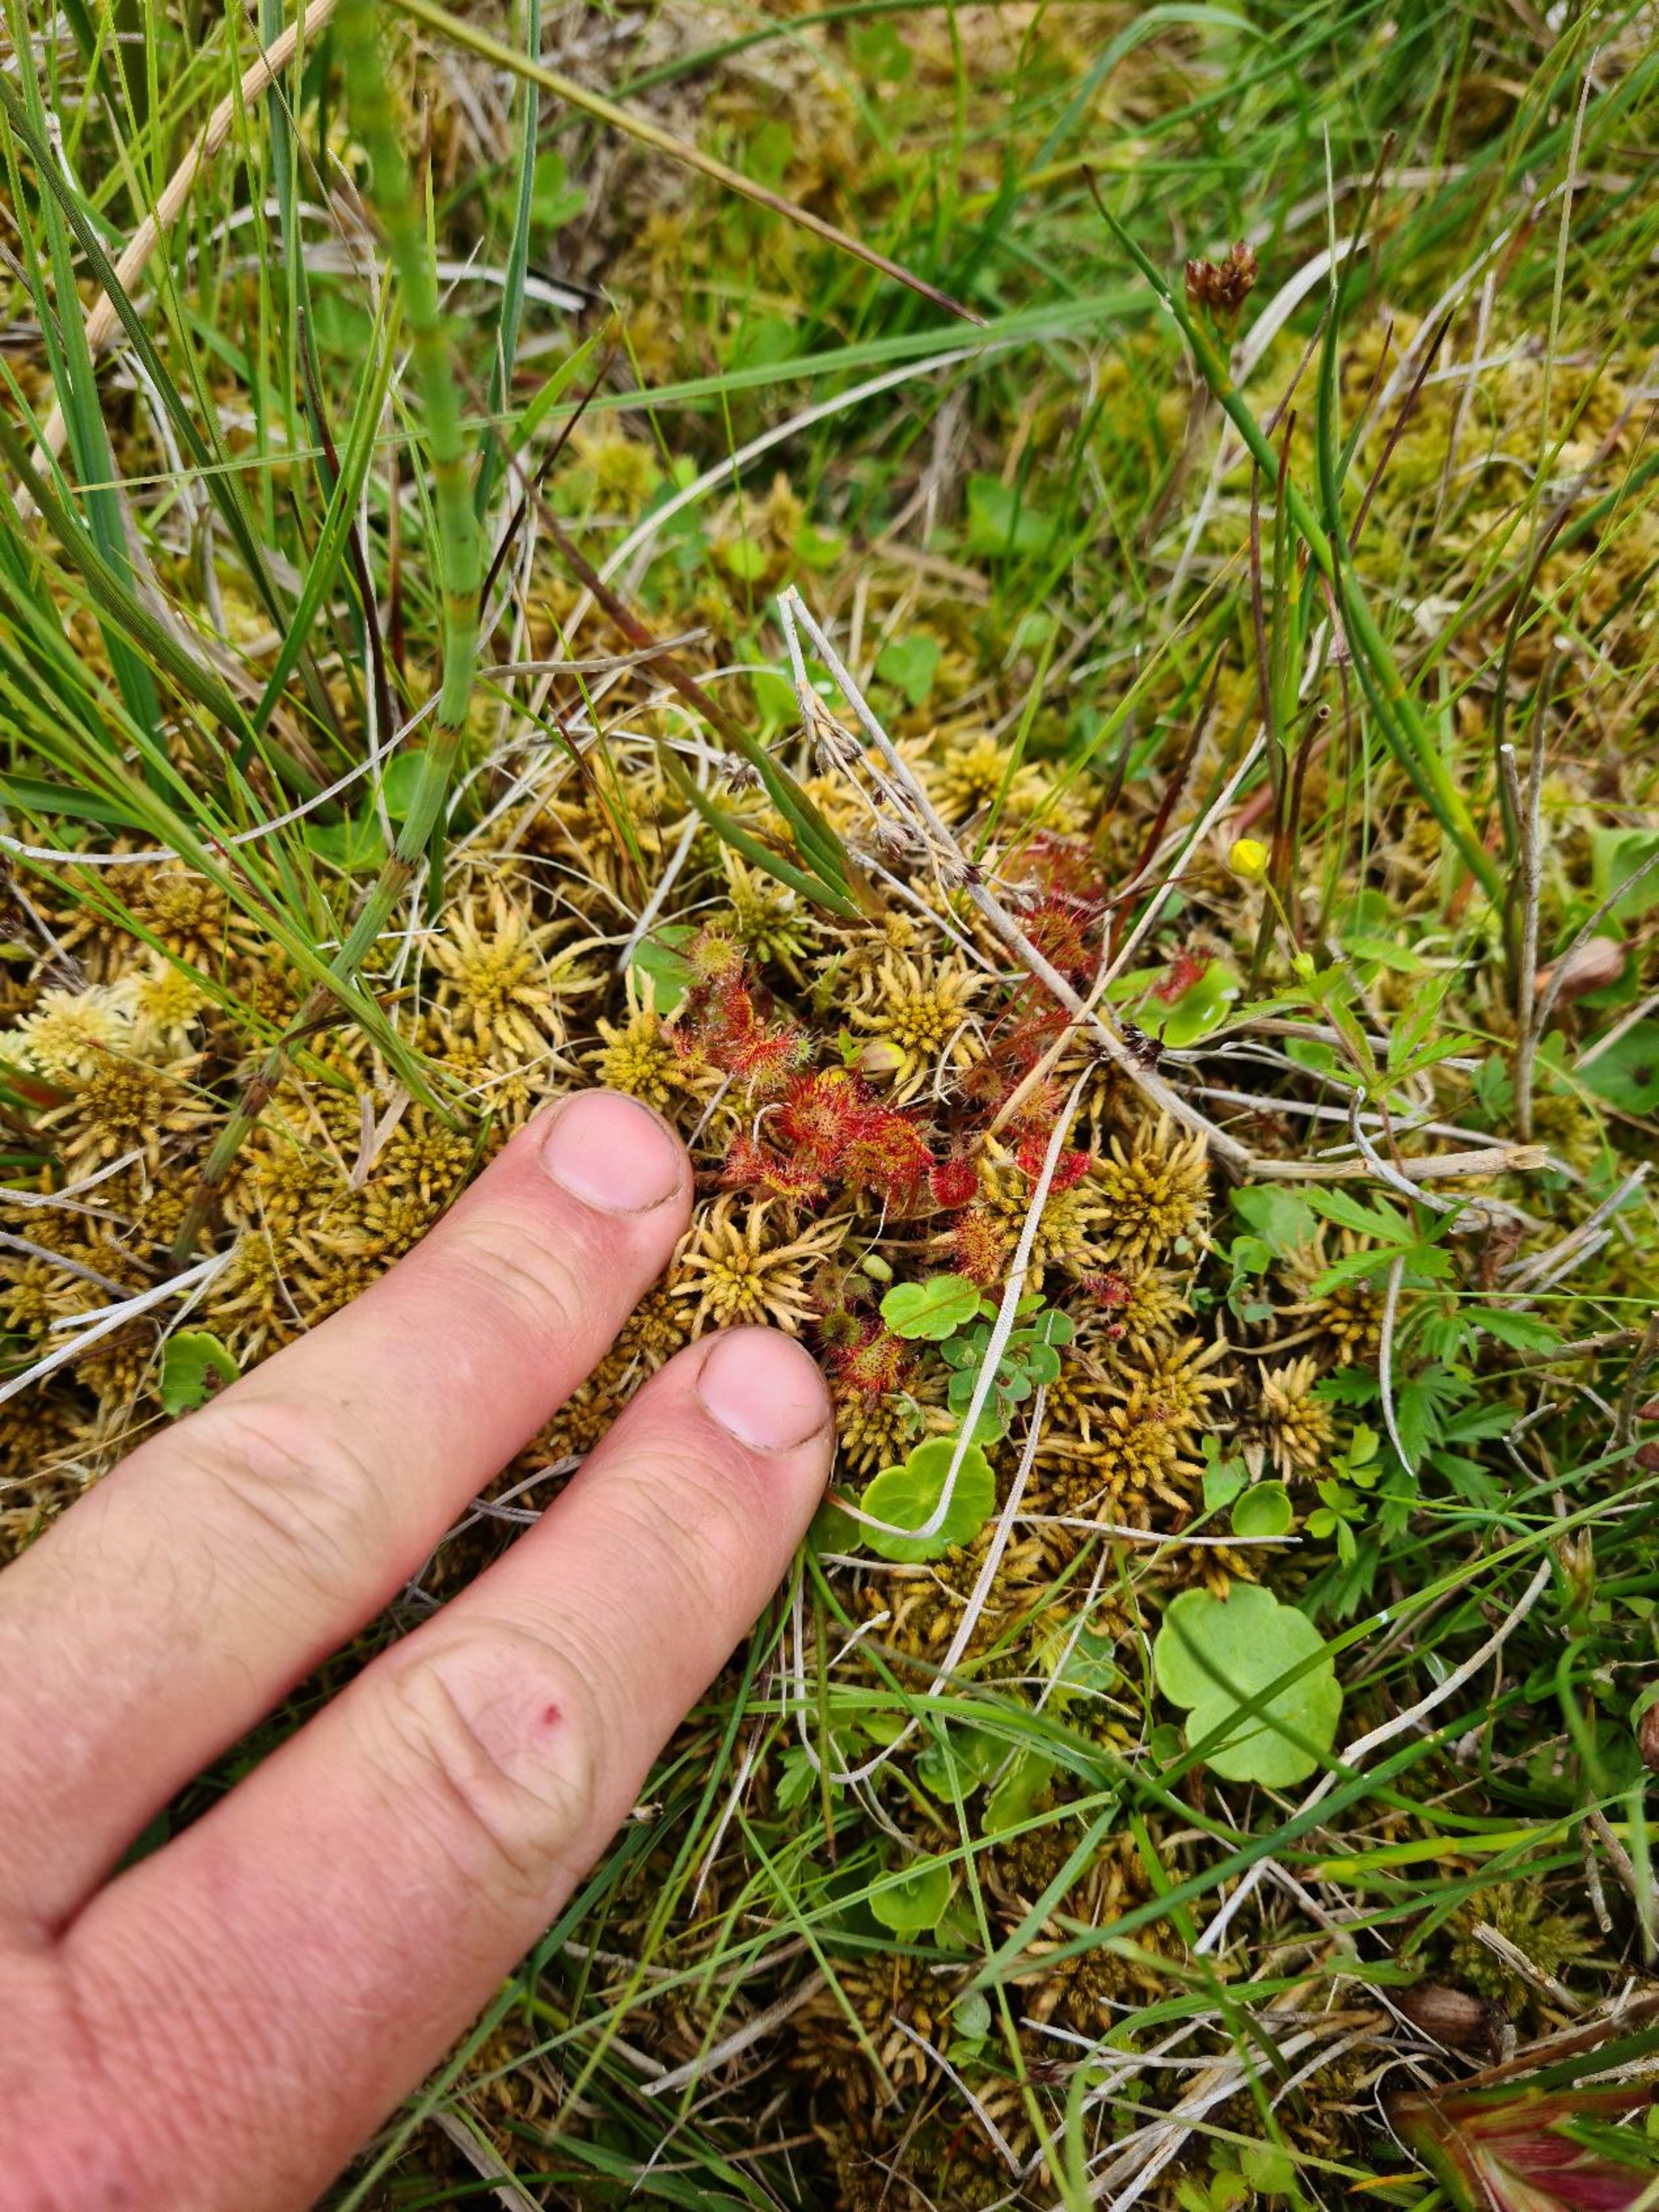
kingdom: Plantae
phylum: Tracheophyta
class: Magnoliopsida
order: Caryophyllales
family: Droseraceae
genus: Drosera
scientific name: Drosera rotundifolia
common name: Rundbladet soldug
